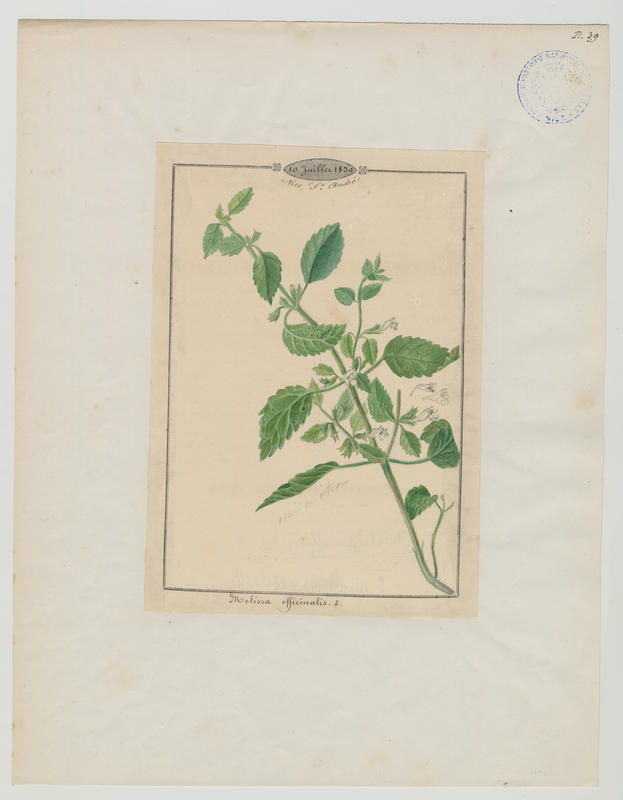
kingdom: Plantae
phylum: Tracheophyta
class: Magnoliopsida
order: Lamiales
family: Lamiaceae
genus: Melissa
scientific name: Melissa officinalis
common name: Balm
